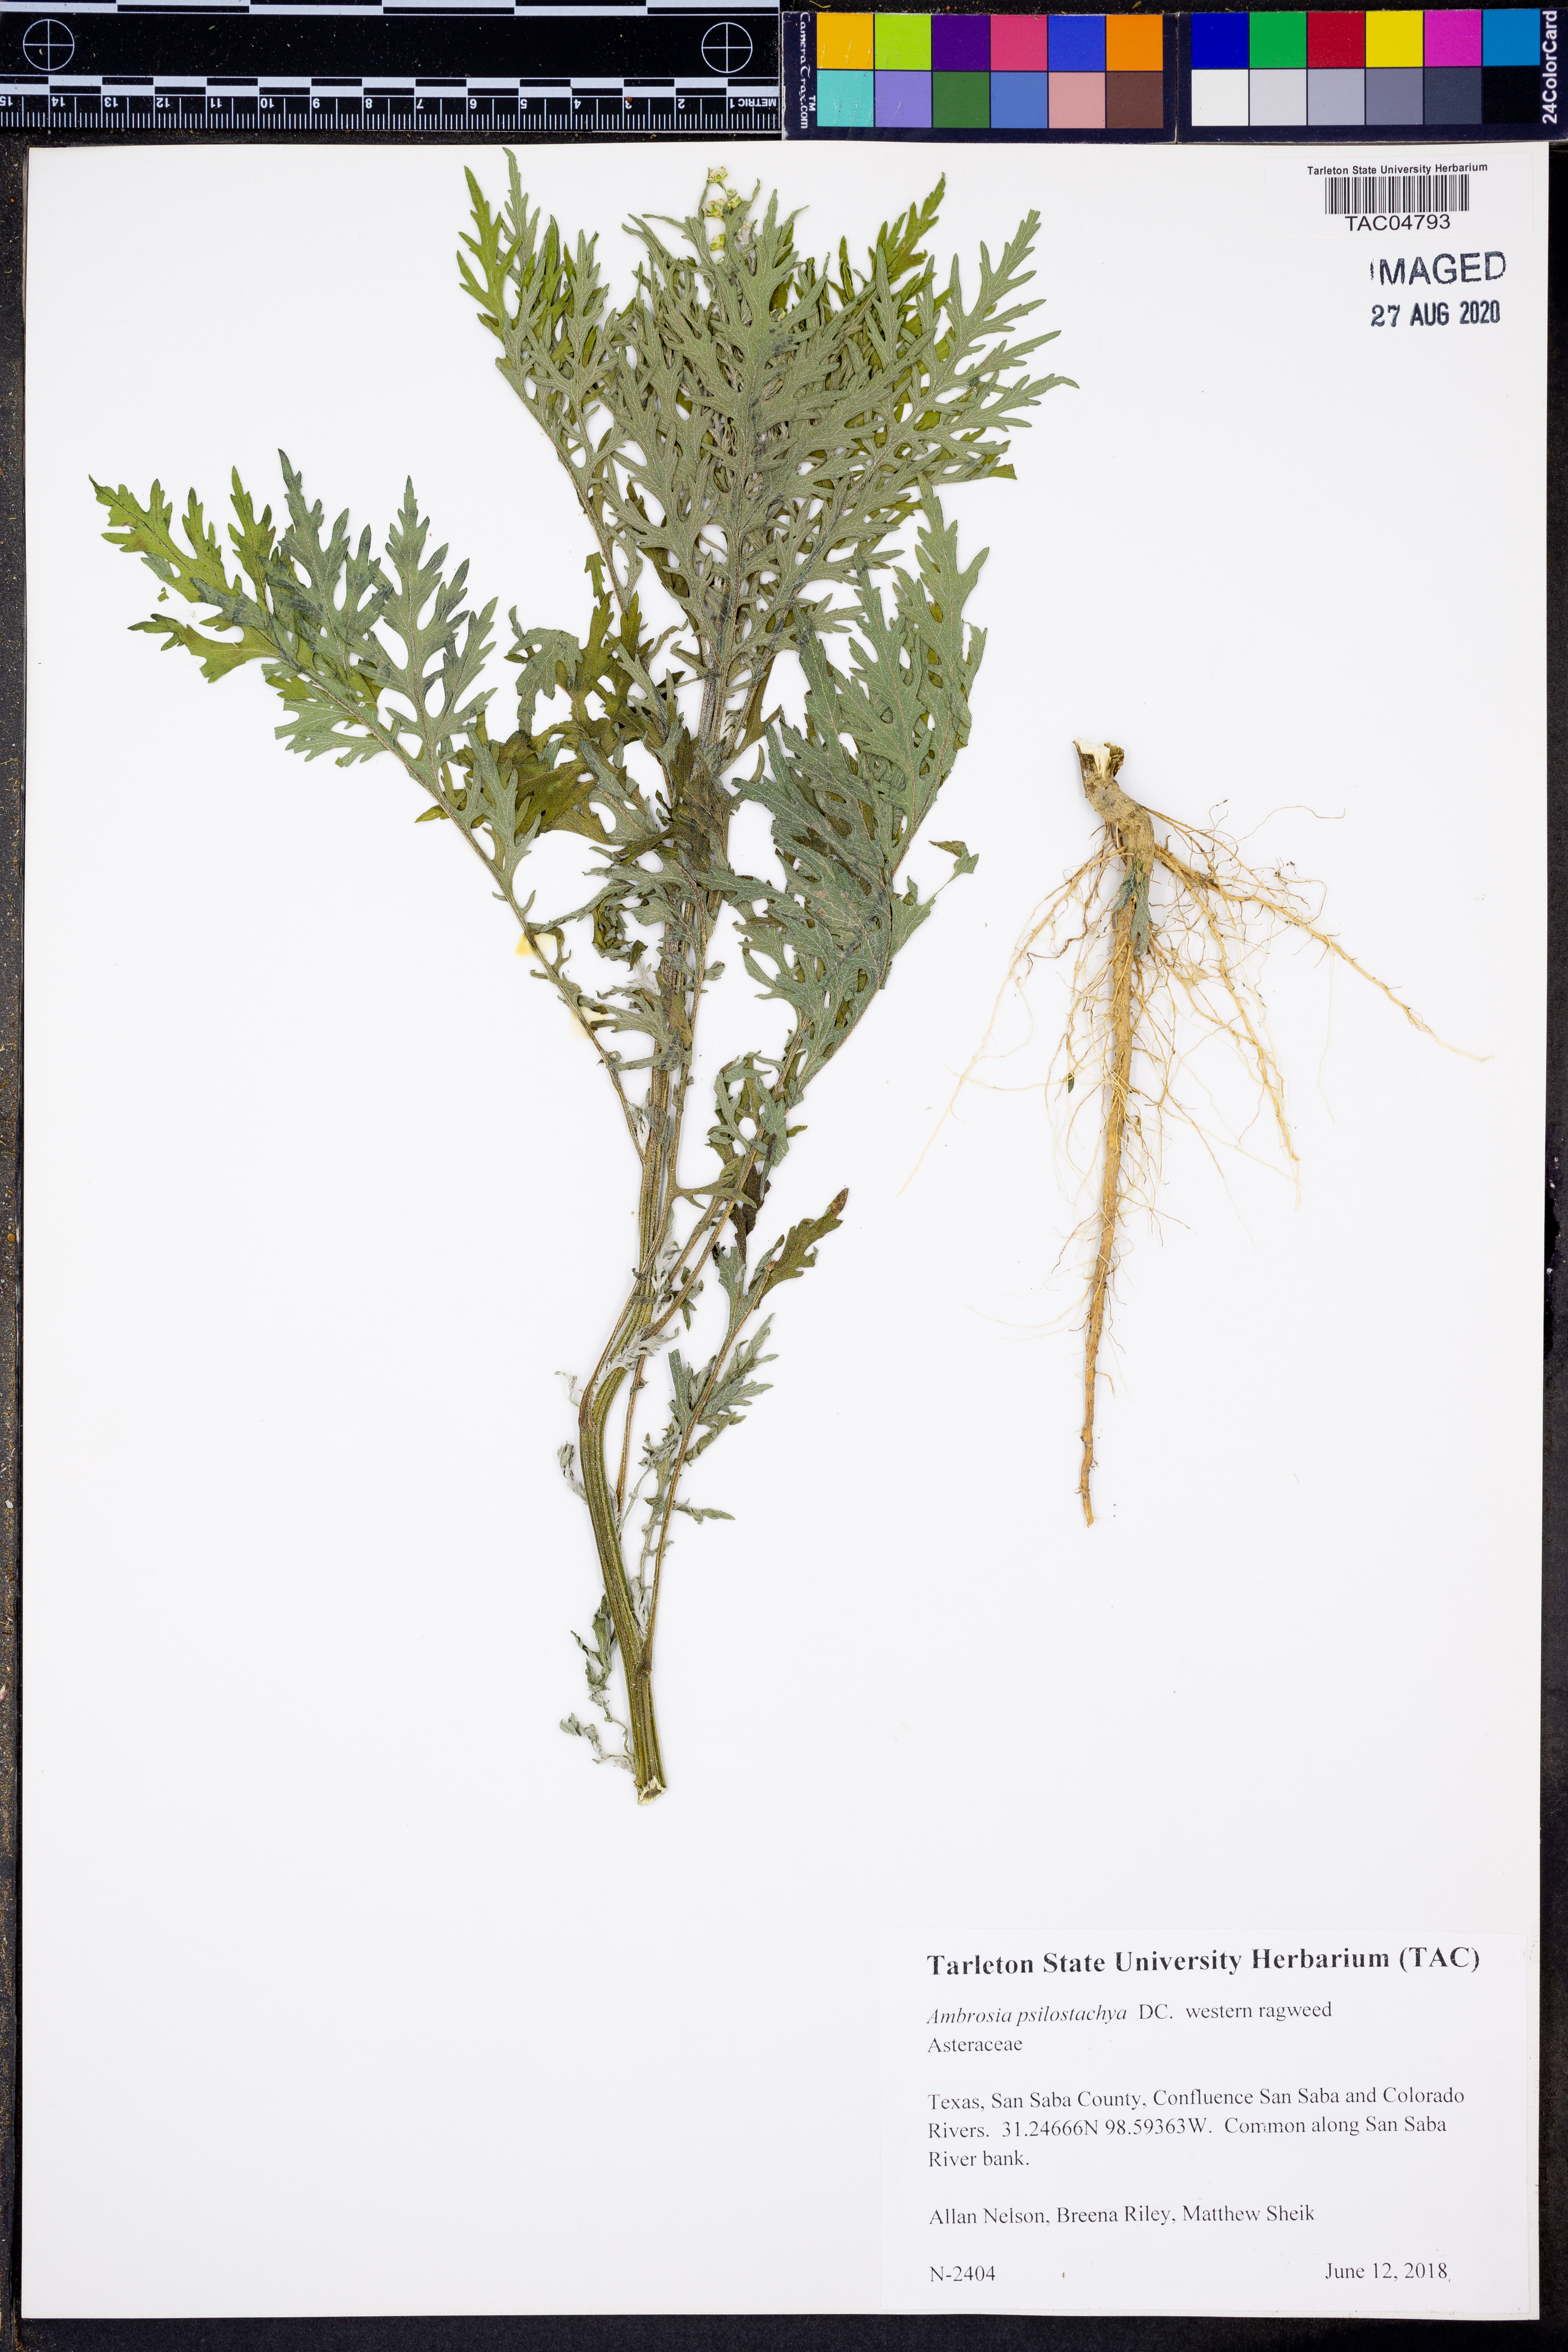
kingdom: Plantae
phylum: Tracheophyta
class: Magnoliopsida
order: Asterales
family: Asteraceae
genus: Ambrosia
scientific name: Ambrosia psilostachya
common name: Perennial ragweed
